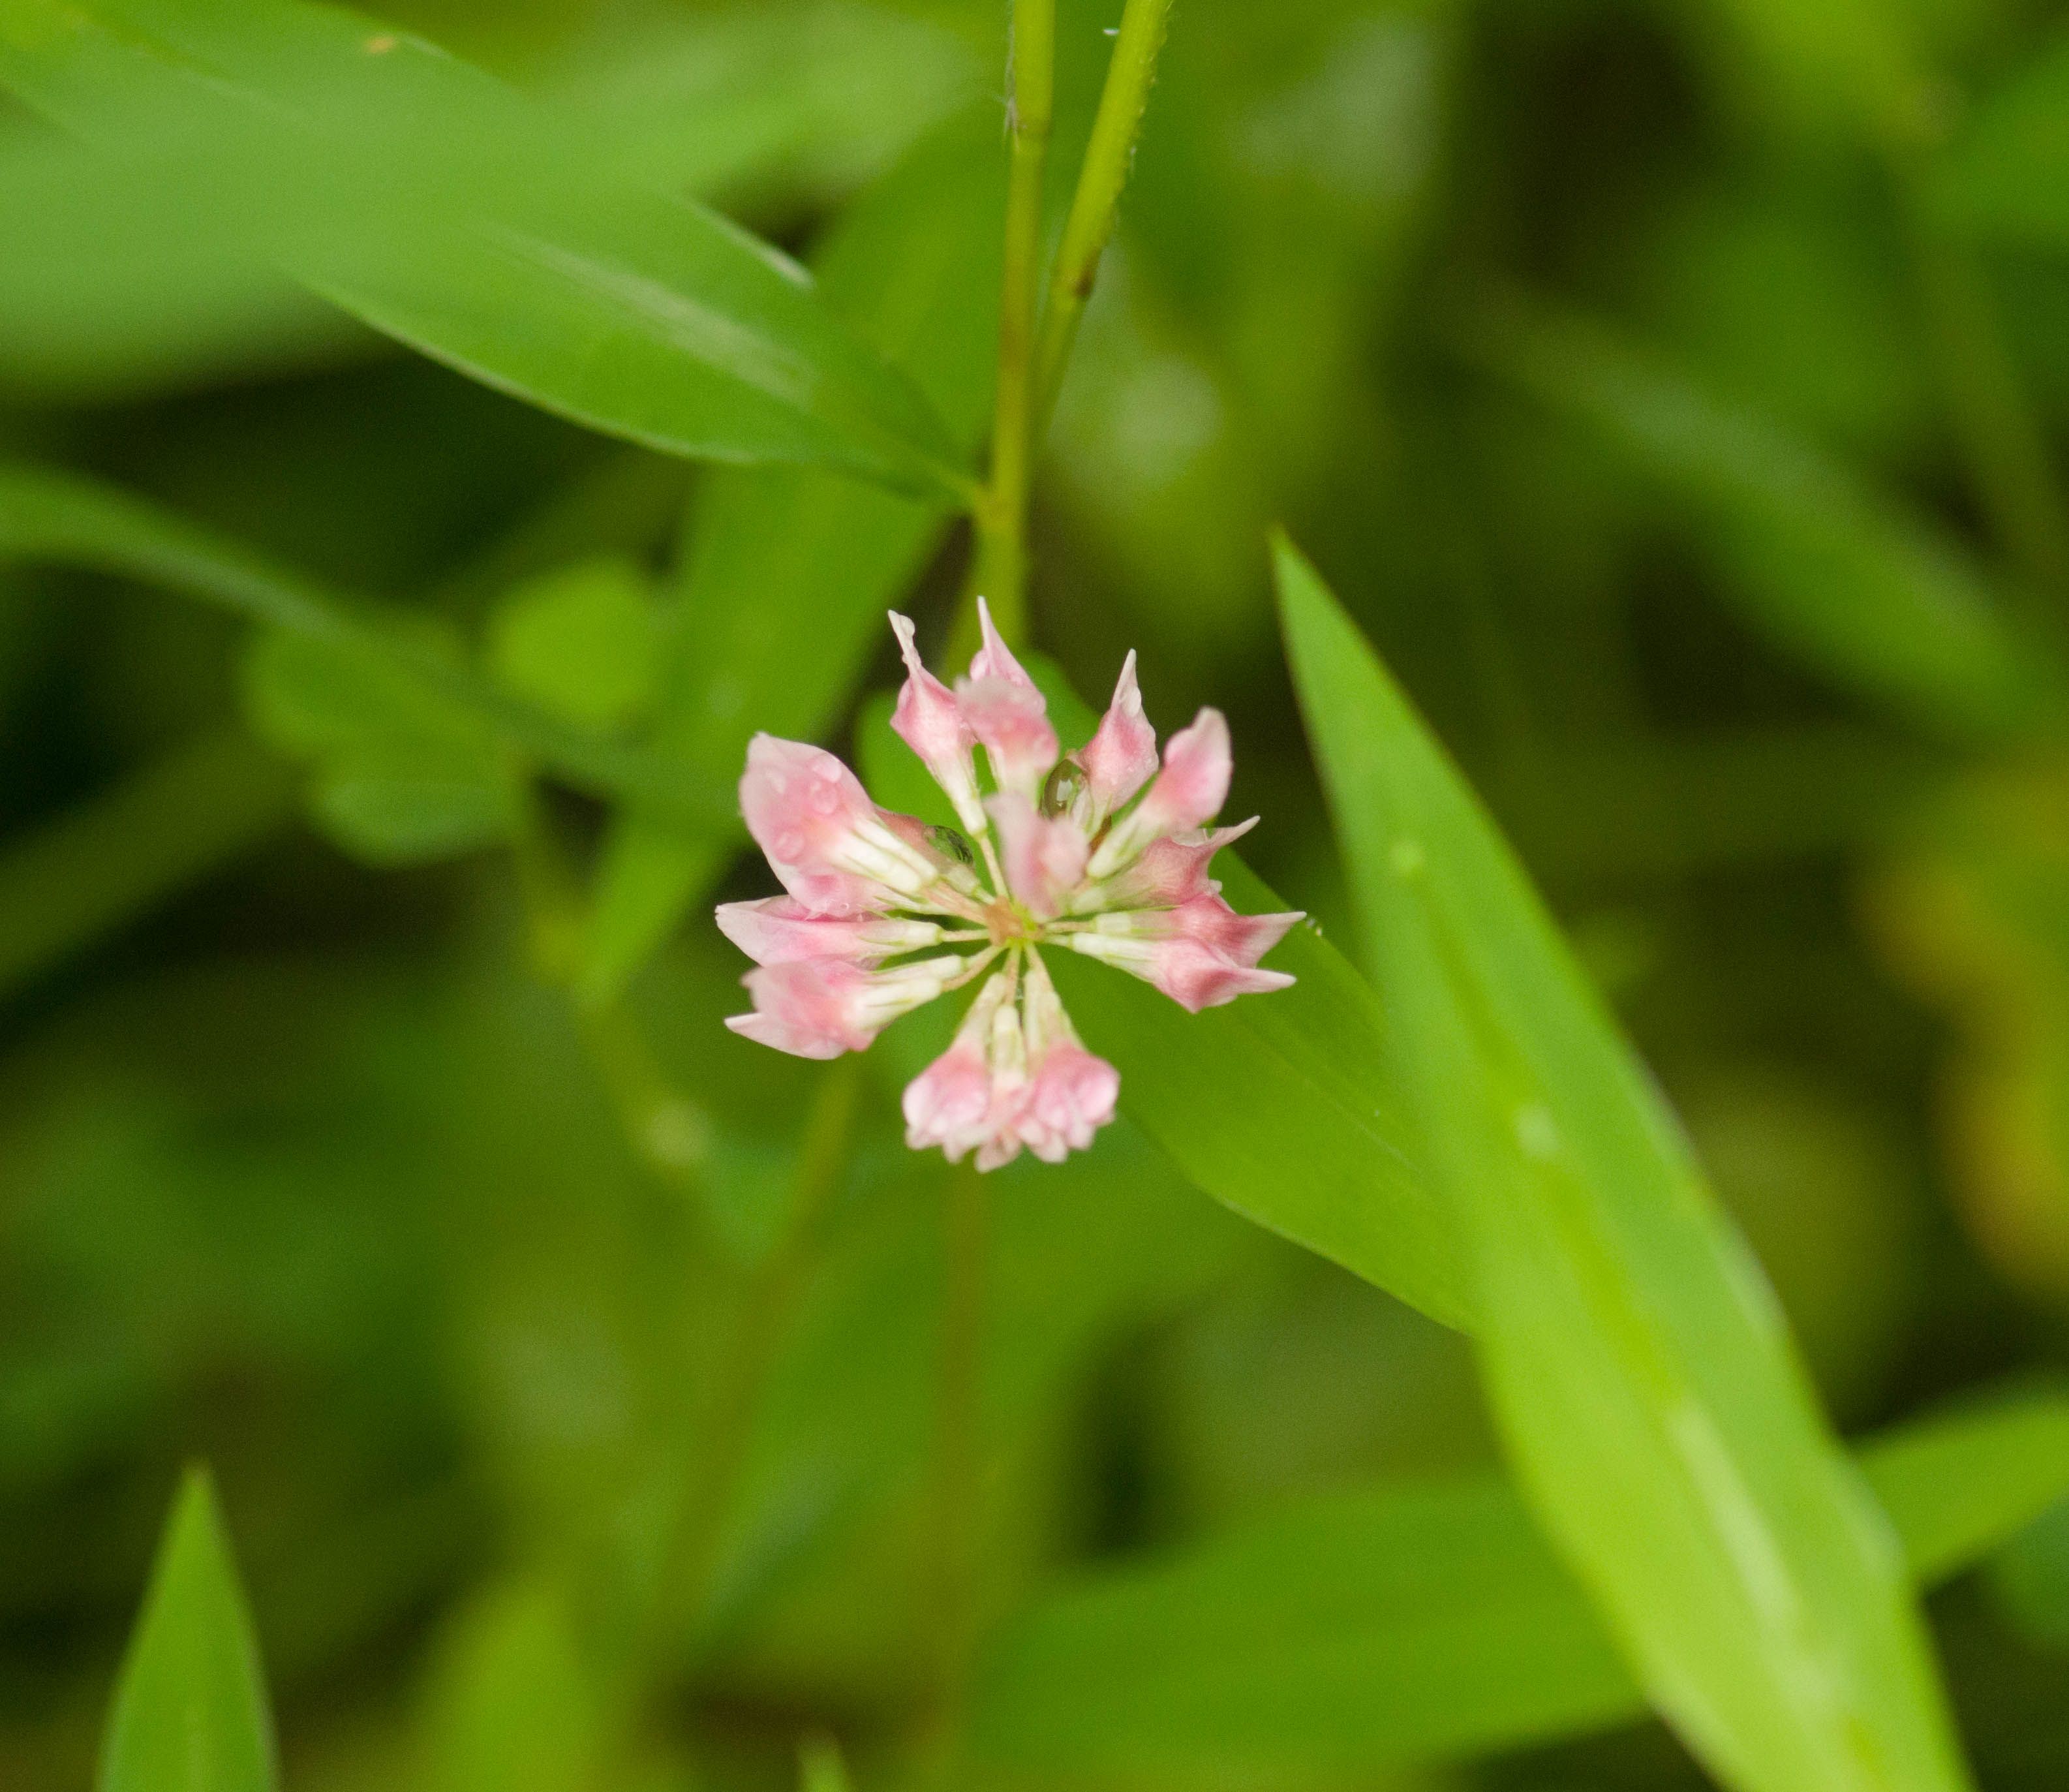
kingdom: Plantae
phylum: Tracheophyta
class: Magnoliopsida
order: Fabales
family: Fabaceae
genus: Trifolium
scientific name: Trifolium hybridum
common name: Alsike clover
